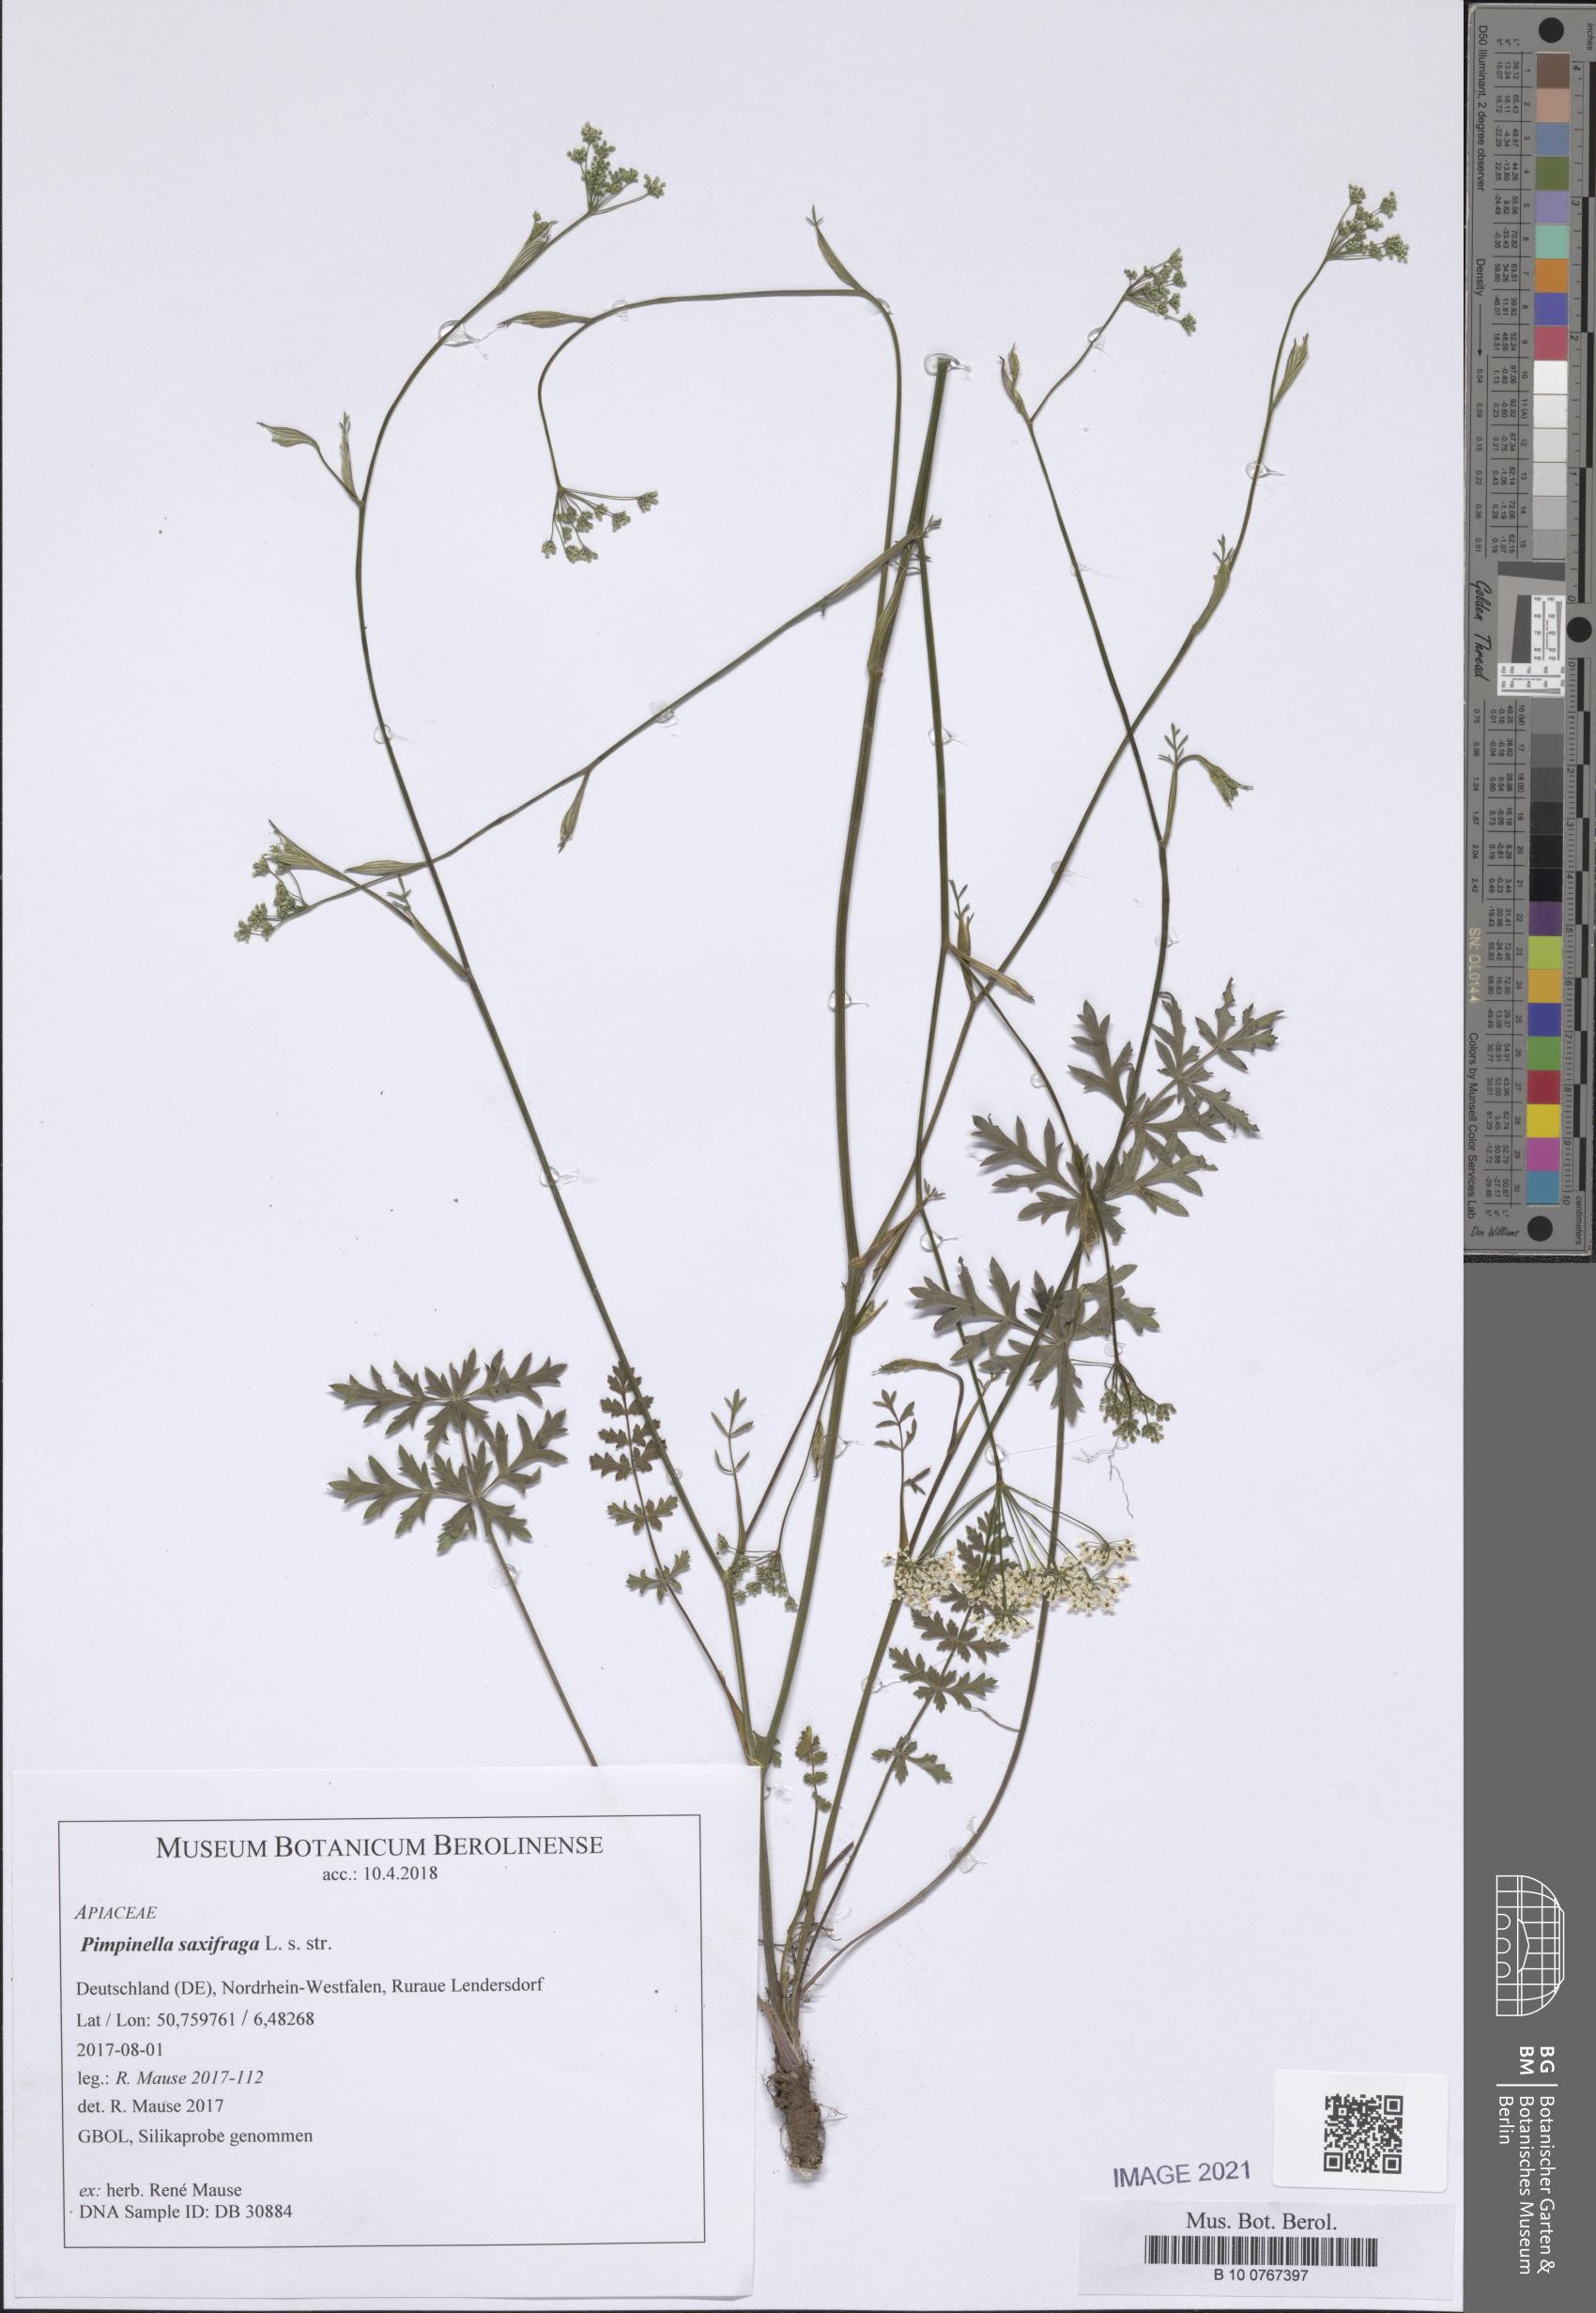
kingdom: Plantae
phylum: Tracheophyta
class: Magnoliopsida
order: Apiales
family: Apiaceae
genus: Pimpinella
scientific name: Pimpinella saxifraga
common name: Burnet-saxifrage
